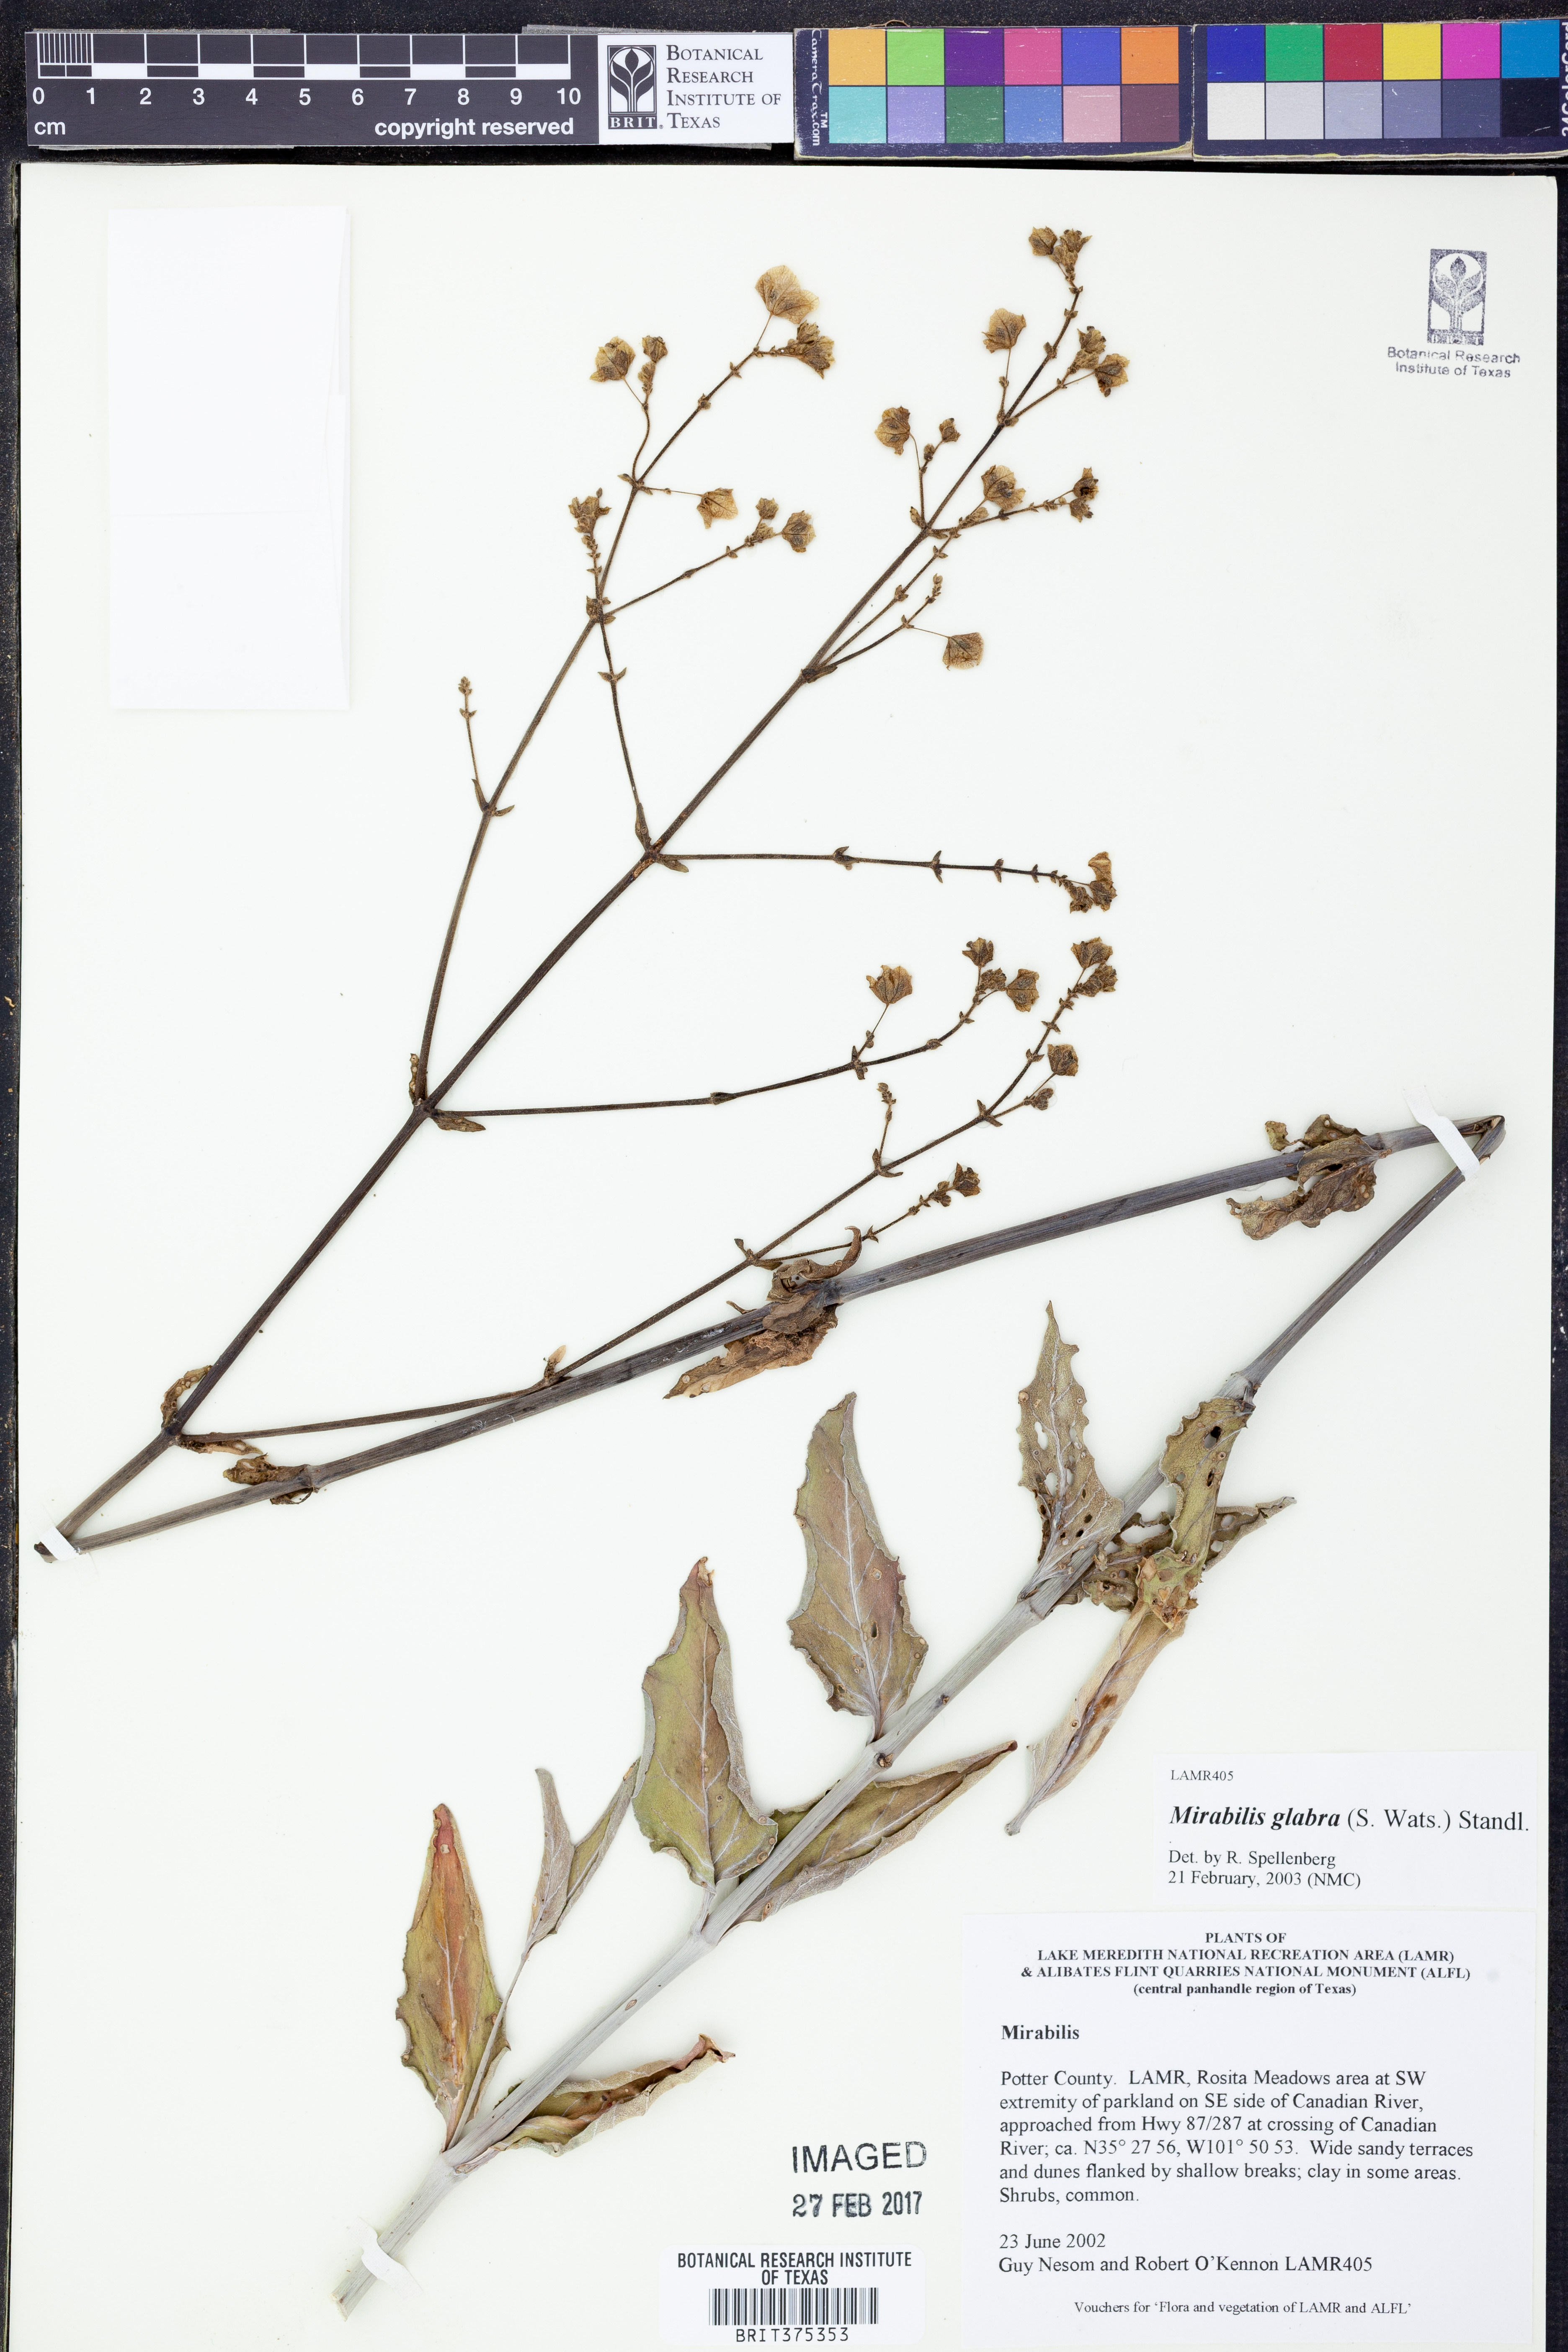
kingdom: Plantae
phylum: Tracheophyta
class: Magnoliopsida
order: Caryophyllales
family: Nyctaginaceae
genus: Mirabilis
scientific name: Mirabilis glabra
